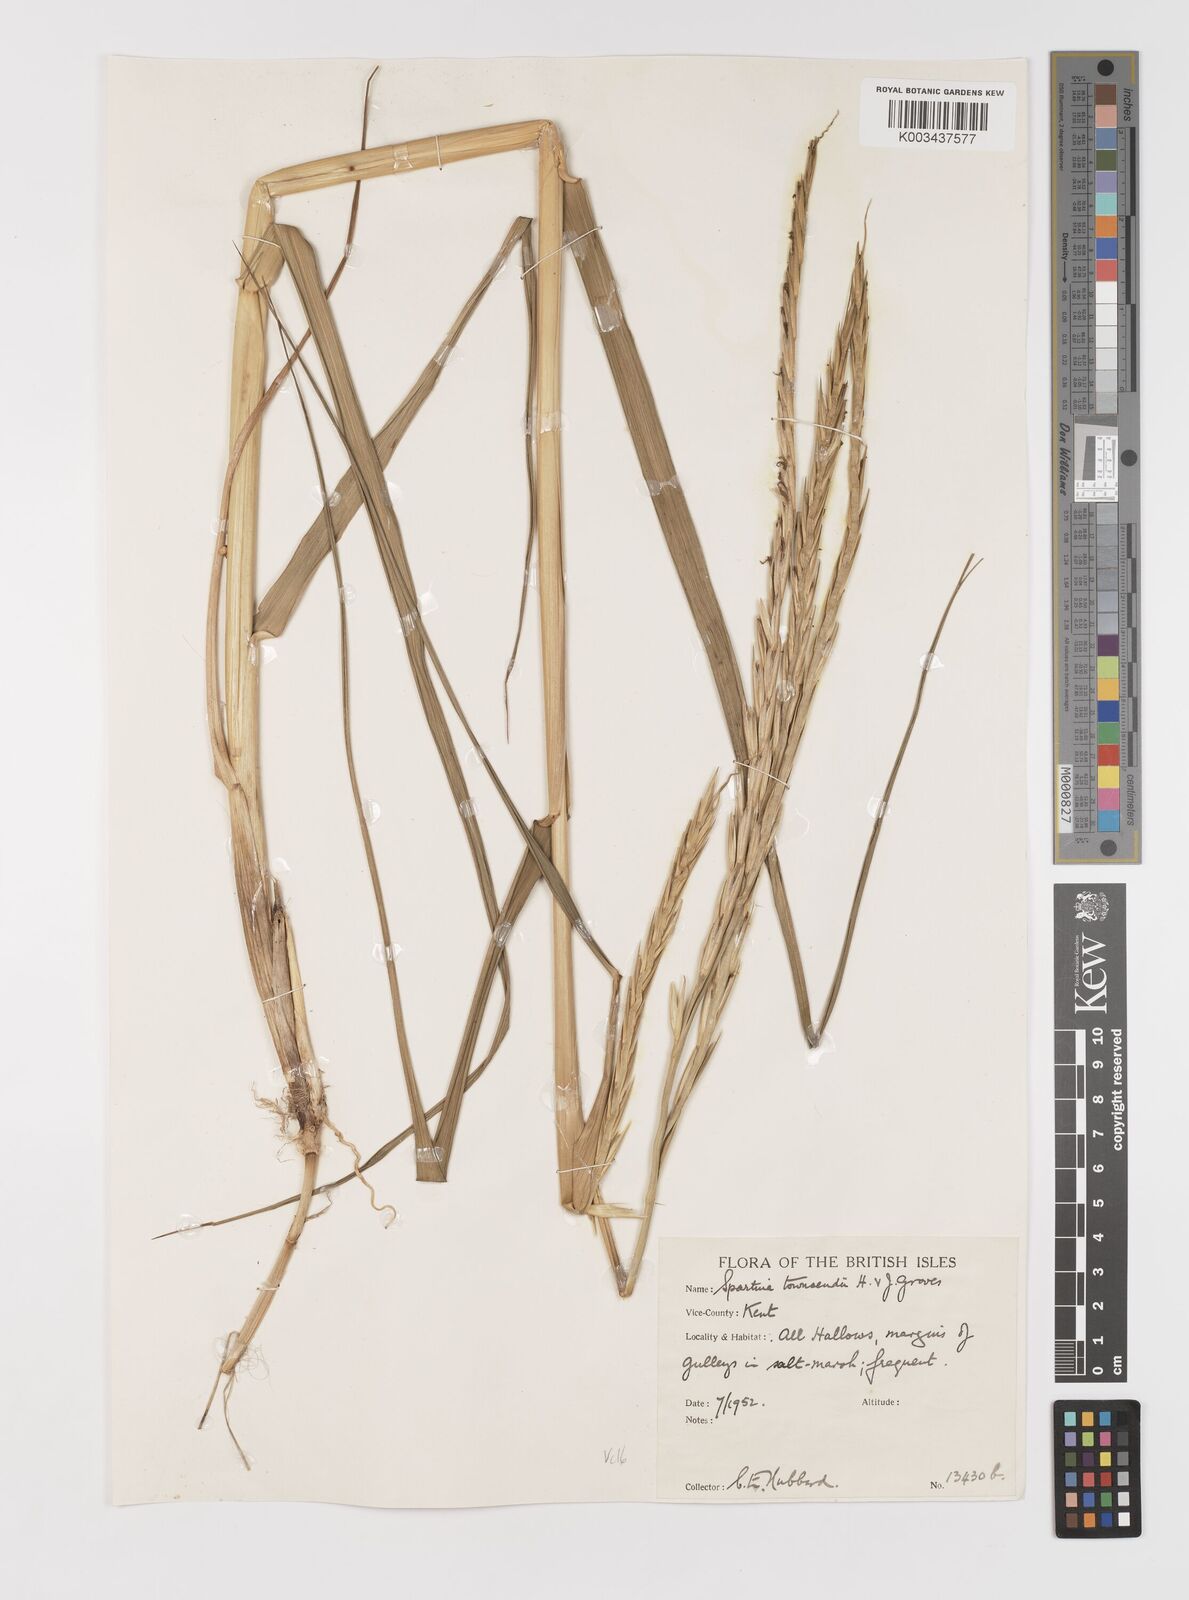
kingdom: Plantae
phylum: Tracheophyta
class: Liliopsida
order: Poales
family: Poaceae
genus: Sporobolus
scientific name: Sporobolus anglicus
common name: English cordgrass
